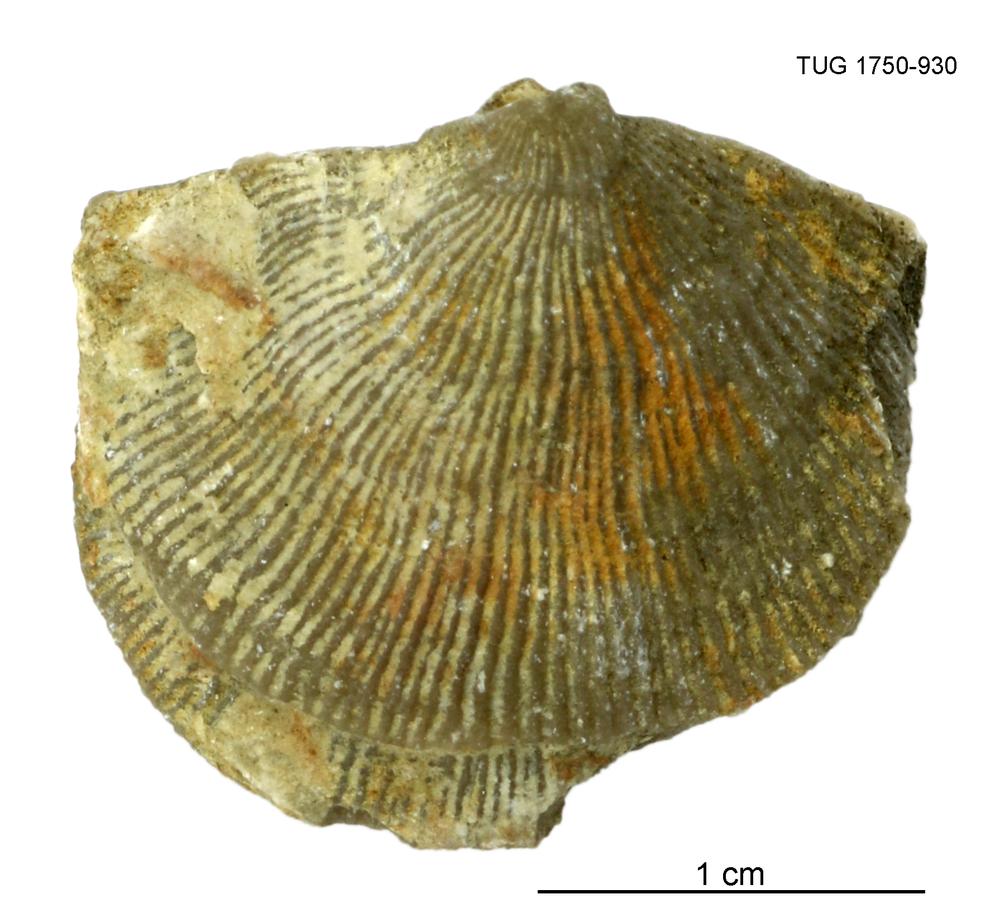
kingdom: Animalia
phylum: Brachiopoda
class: Rhynchonellata
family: Clitambonitidae
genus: Vellamo
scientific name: Vellamo wesenbergiensis
